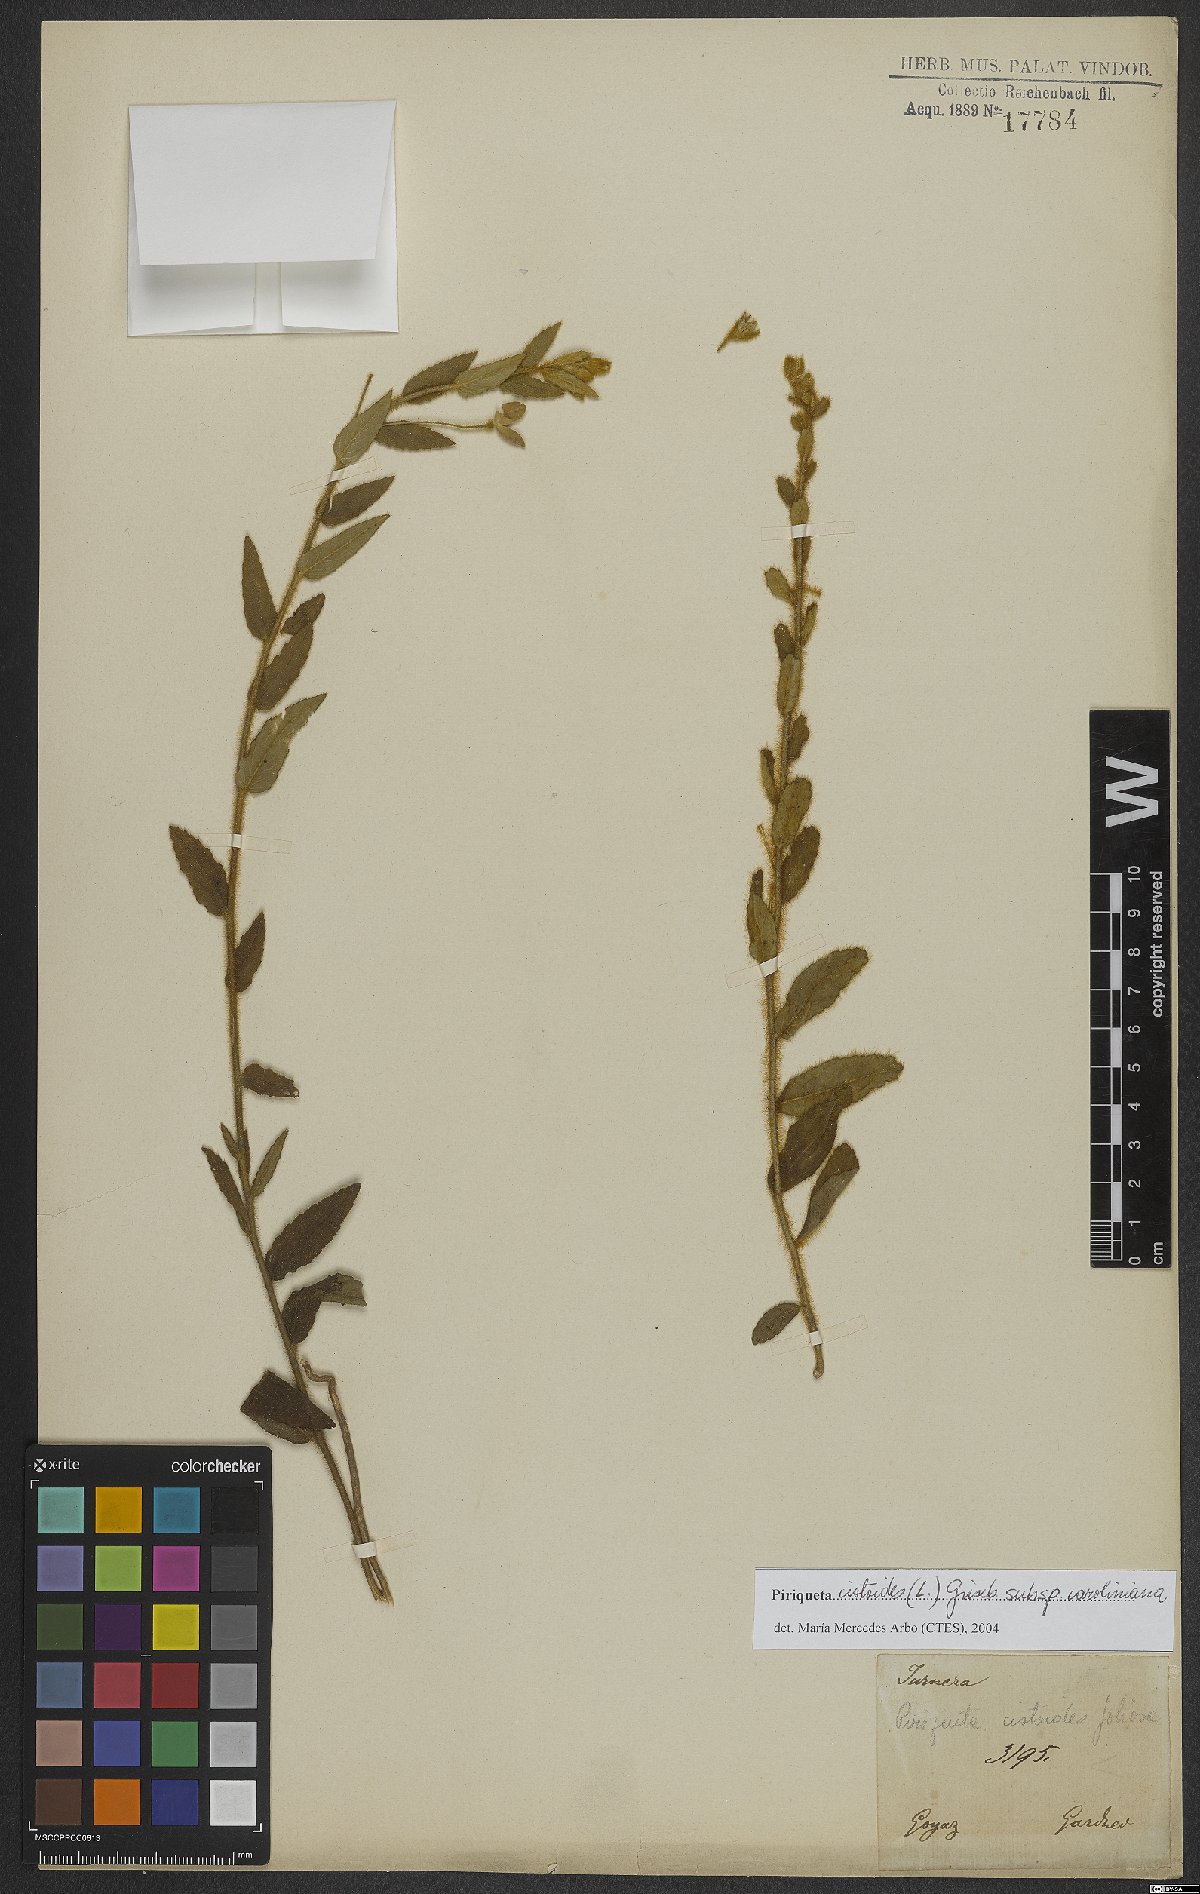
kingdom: Plantae
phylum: Tracheophyta
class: Magnoliopsida
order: Malpighiales
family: Turneraceae
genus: Piriqueta
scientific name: Piriqueta cistoides
